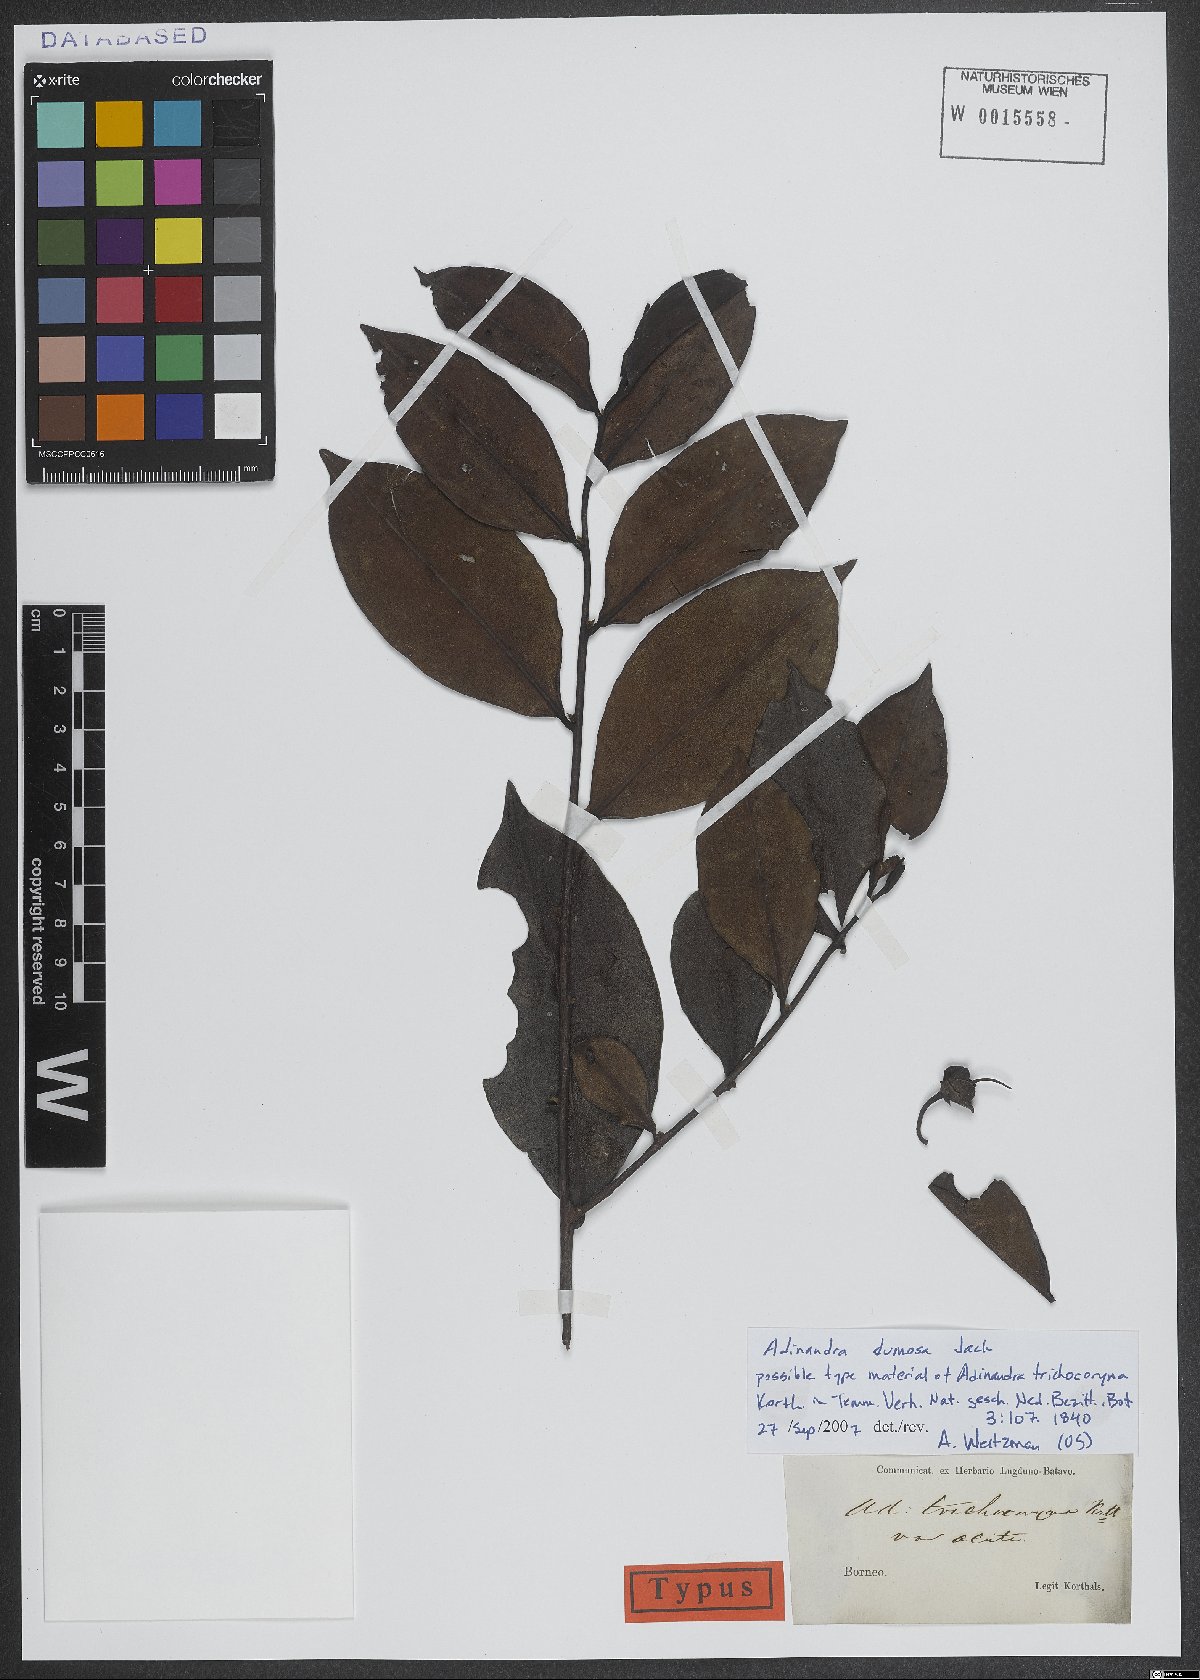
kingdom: Plantae
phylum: Tracheophyta
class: Magnoliopsida
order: Ericales
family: Pentaphylacaceae
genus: Adinandra
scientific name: Adinandra dumosa
